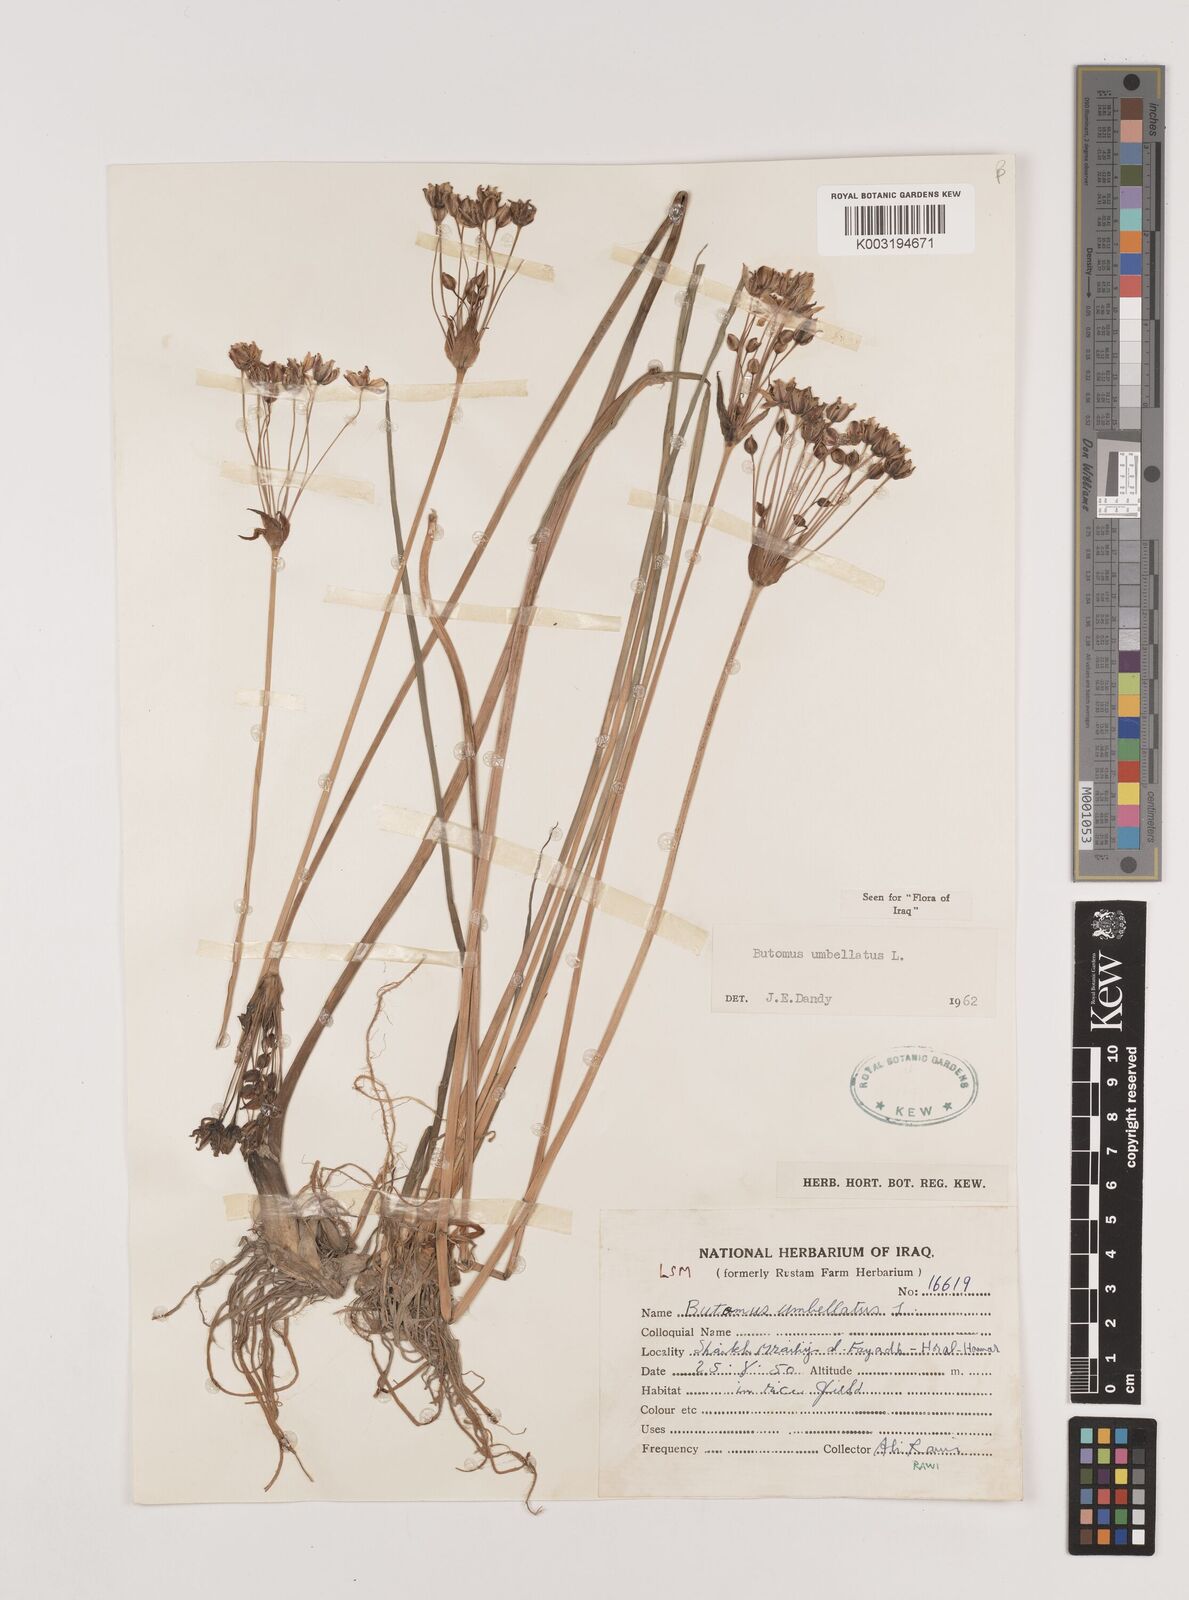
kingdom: Plantae
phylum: Tracheophyta
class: Liliopsida
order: Alismatales
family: Butomaceae
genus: Butomus
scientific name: Butomus
